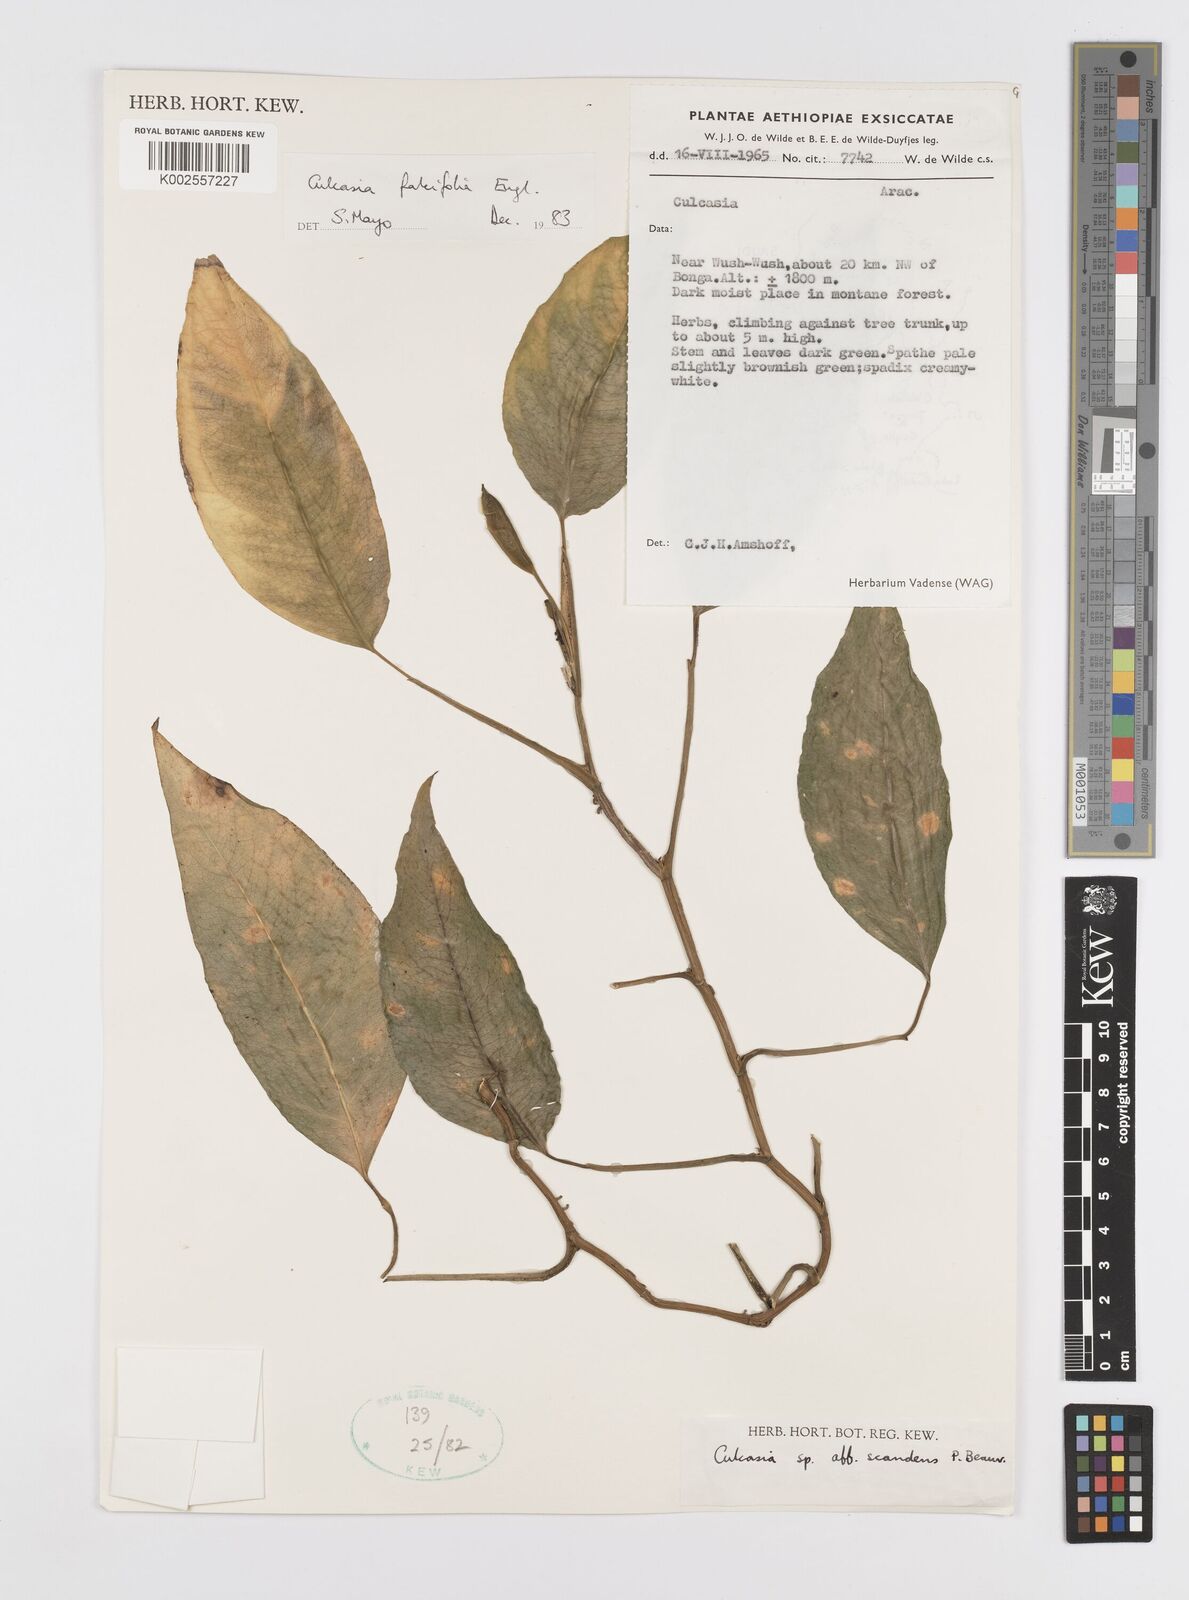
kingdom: Plantae
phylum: Tracheophyta
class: Liliopsida
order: Alismatales
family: Araceae
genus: Culcasia
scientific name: Culcasia falcifolia
